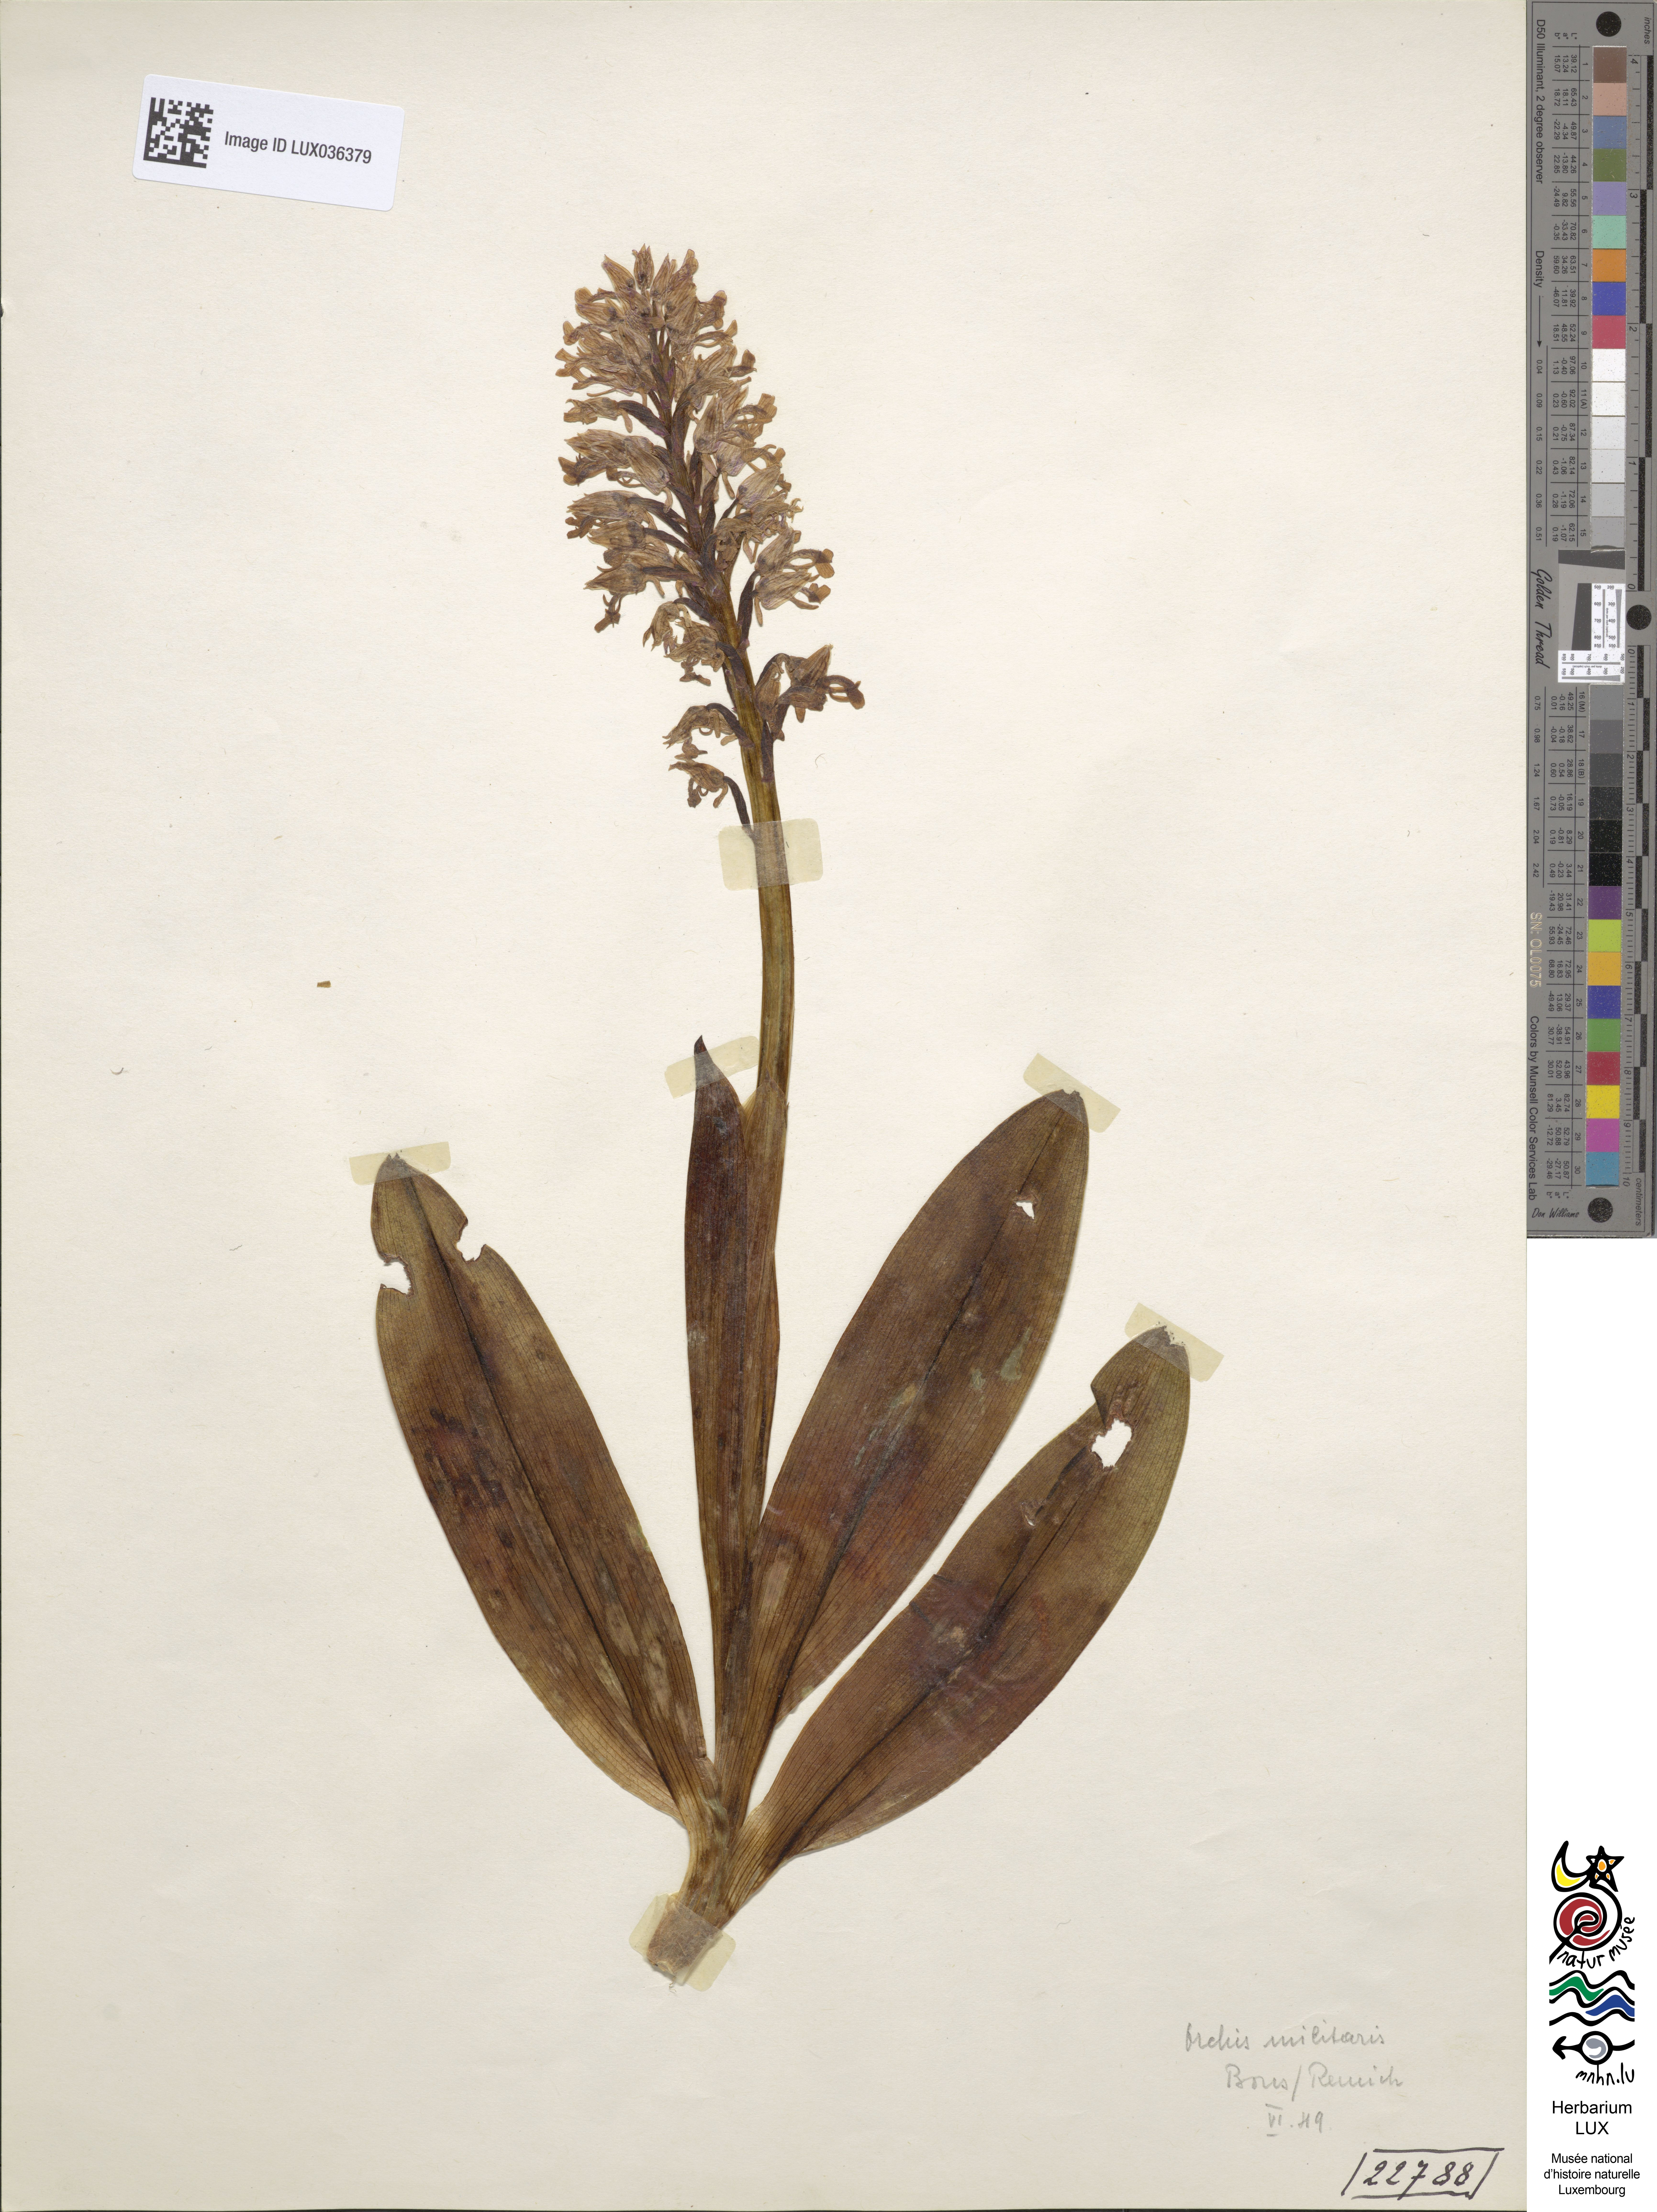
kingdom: Plantae
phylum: Tracheophyta
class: Liliopsida
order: Asparagales
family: Orchidaceae
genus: Orchis
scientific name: Orchis militaris
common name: Military orchid
